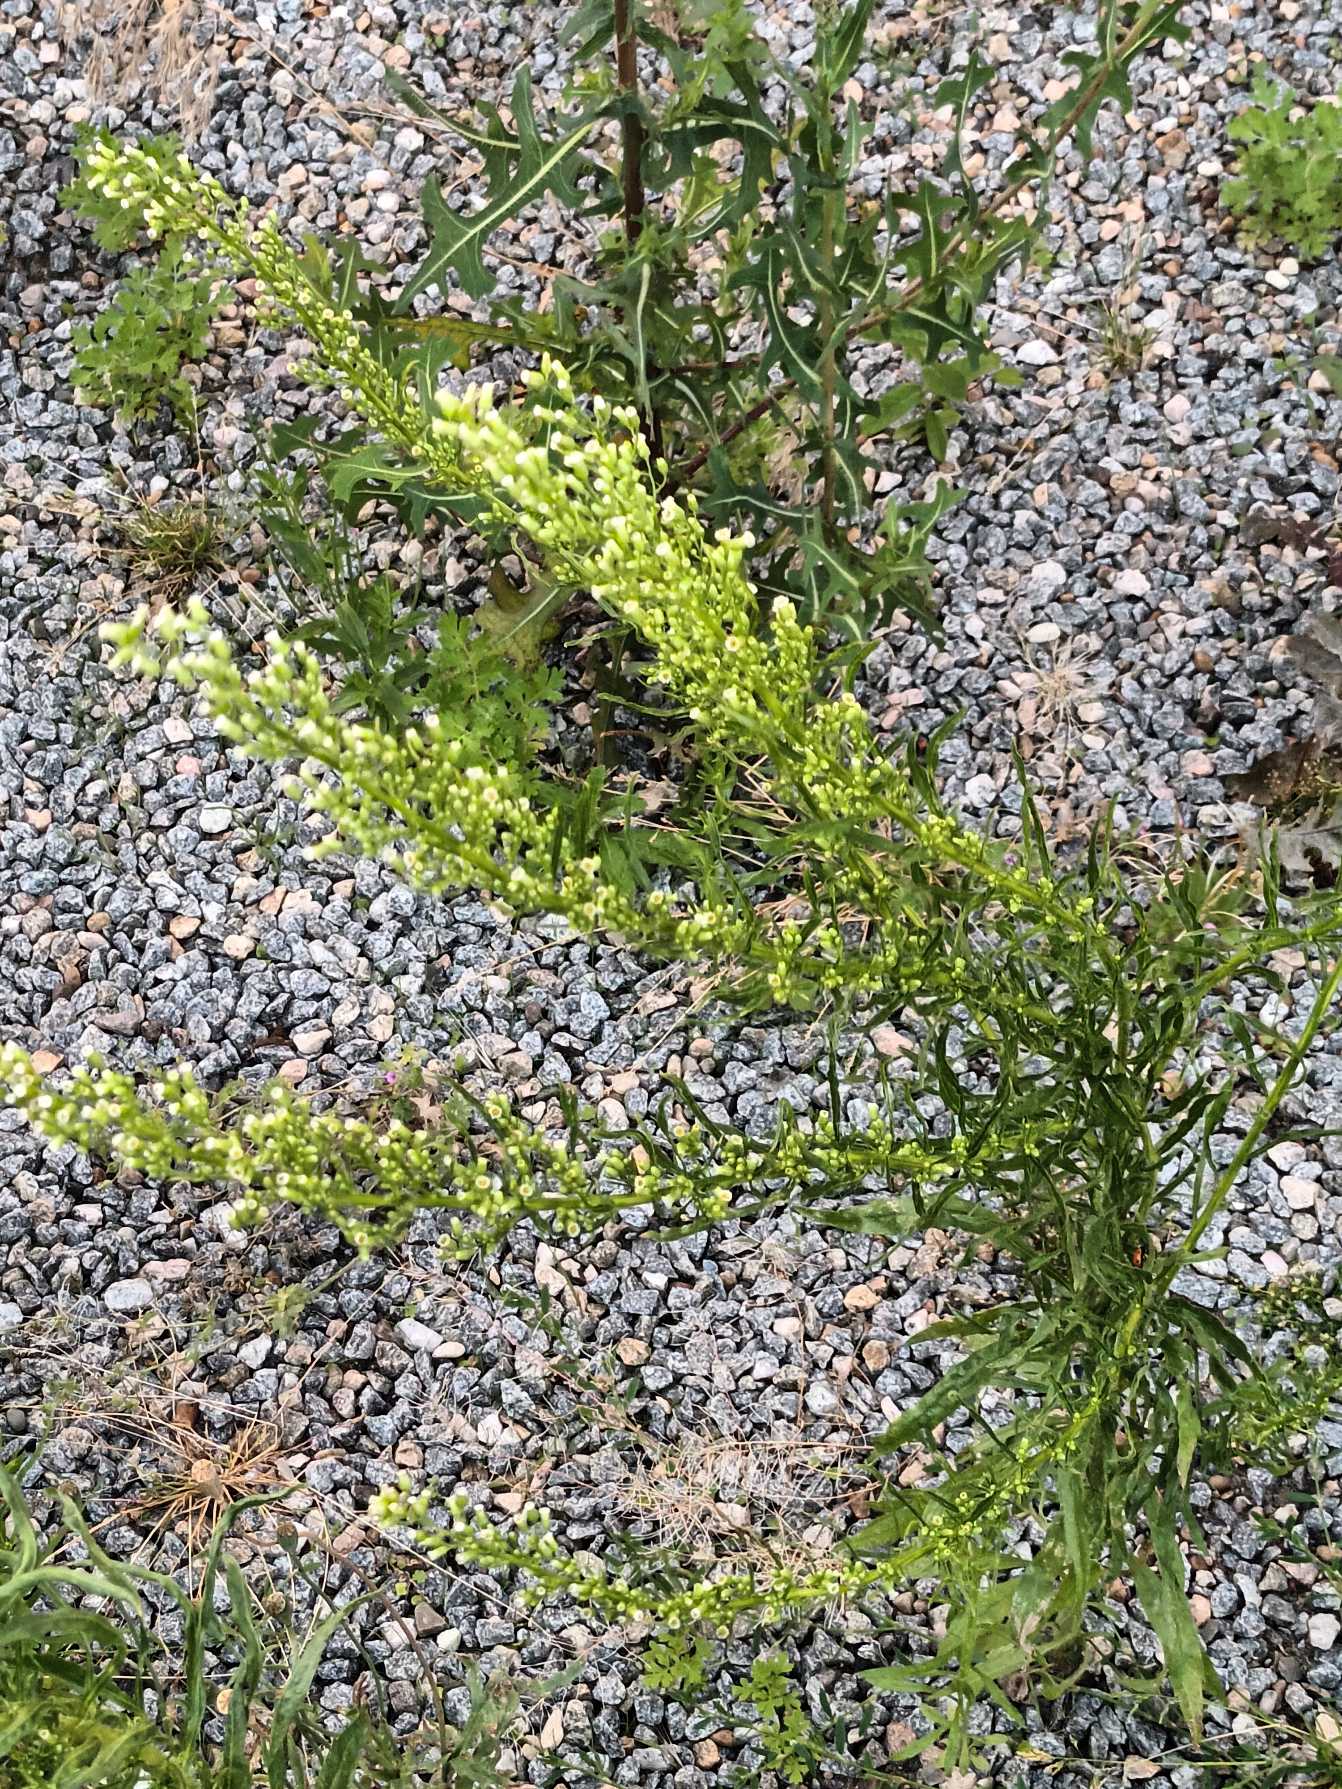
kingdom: Plantae
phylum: Tracheophyta
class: Magnoliopsida
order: Asterales
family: Asteraceae
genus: Erigeron
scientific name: Erigeron canadensis
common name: Kanadisk bakkestjerne
